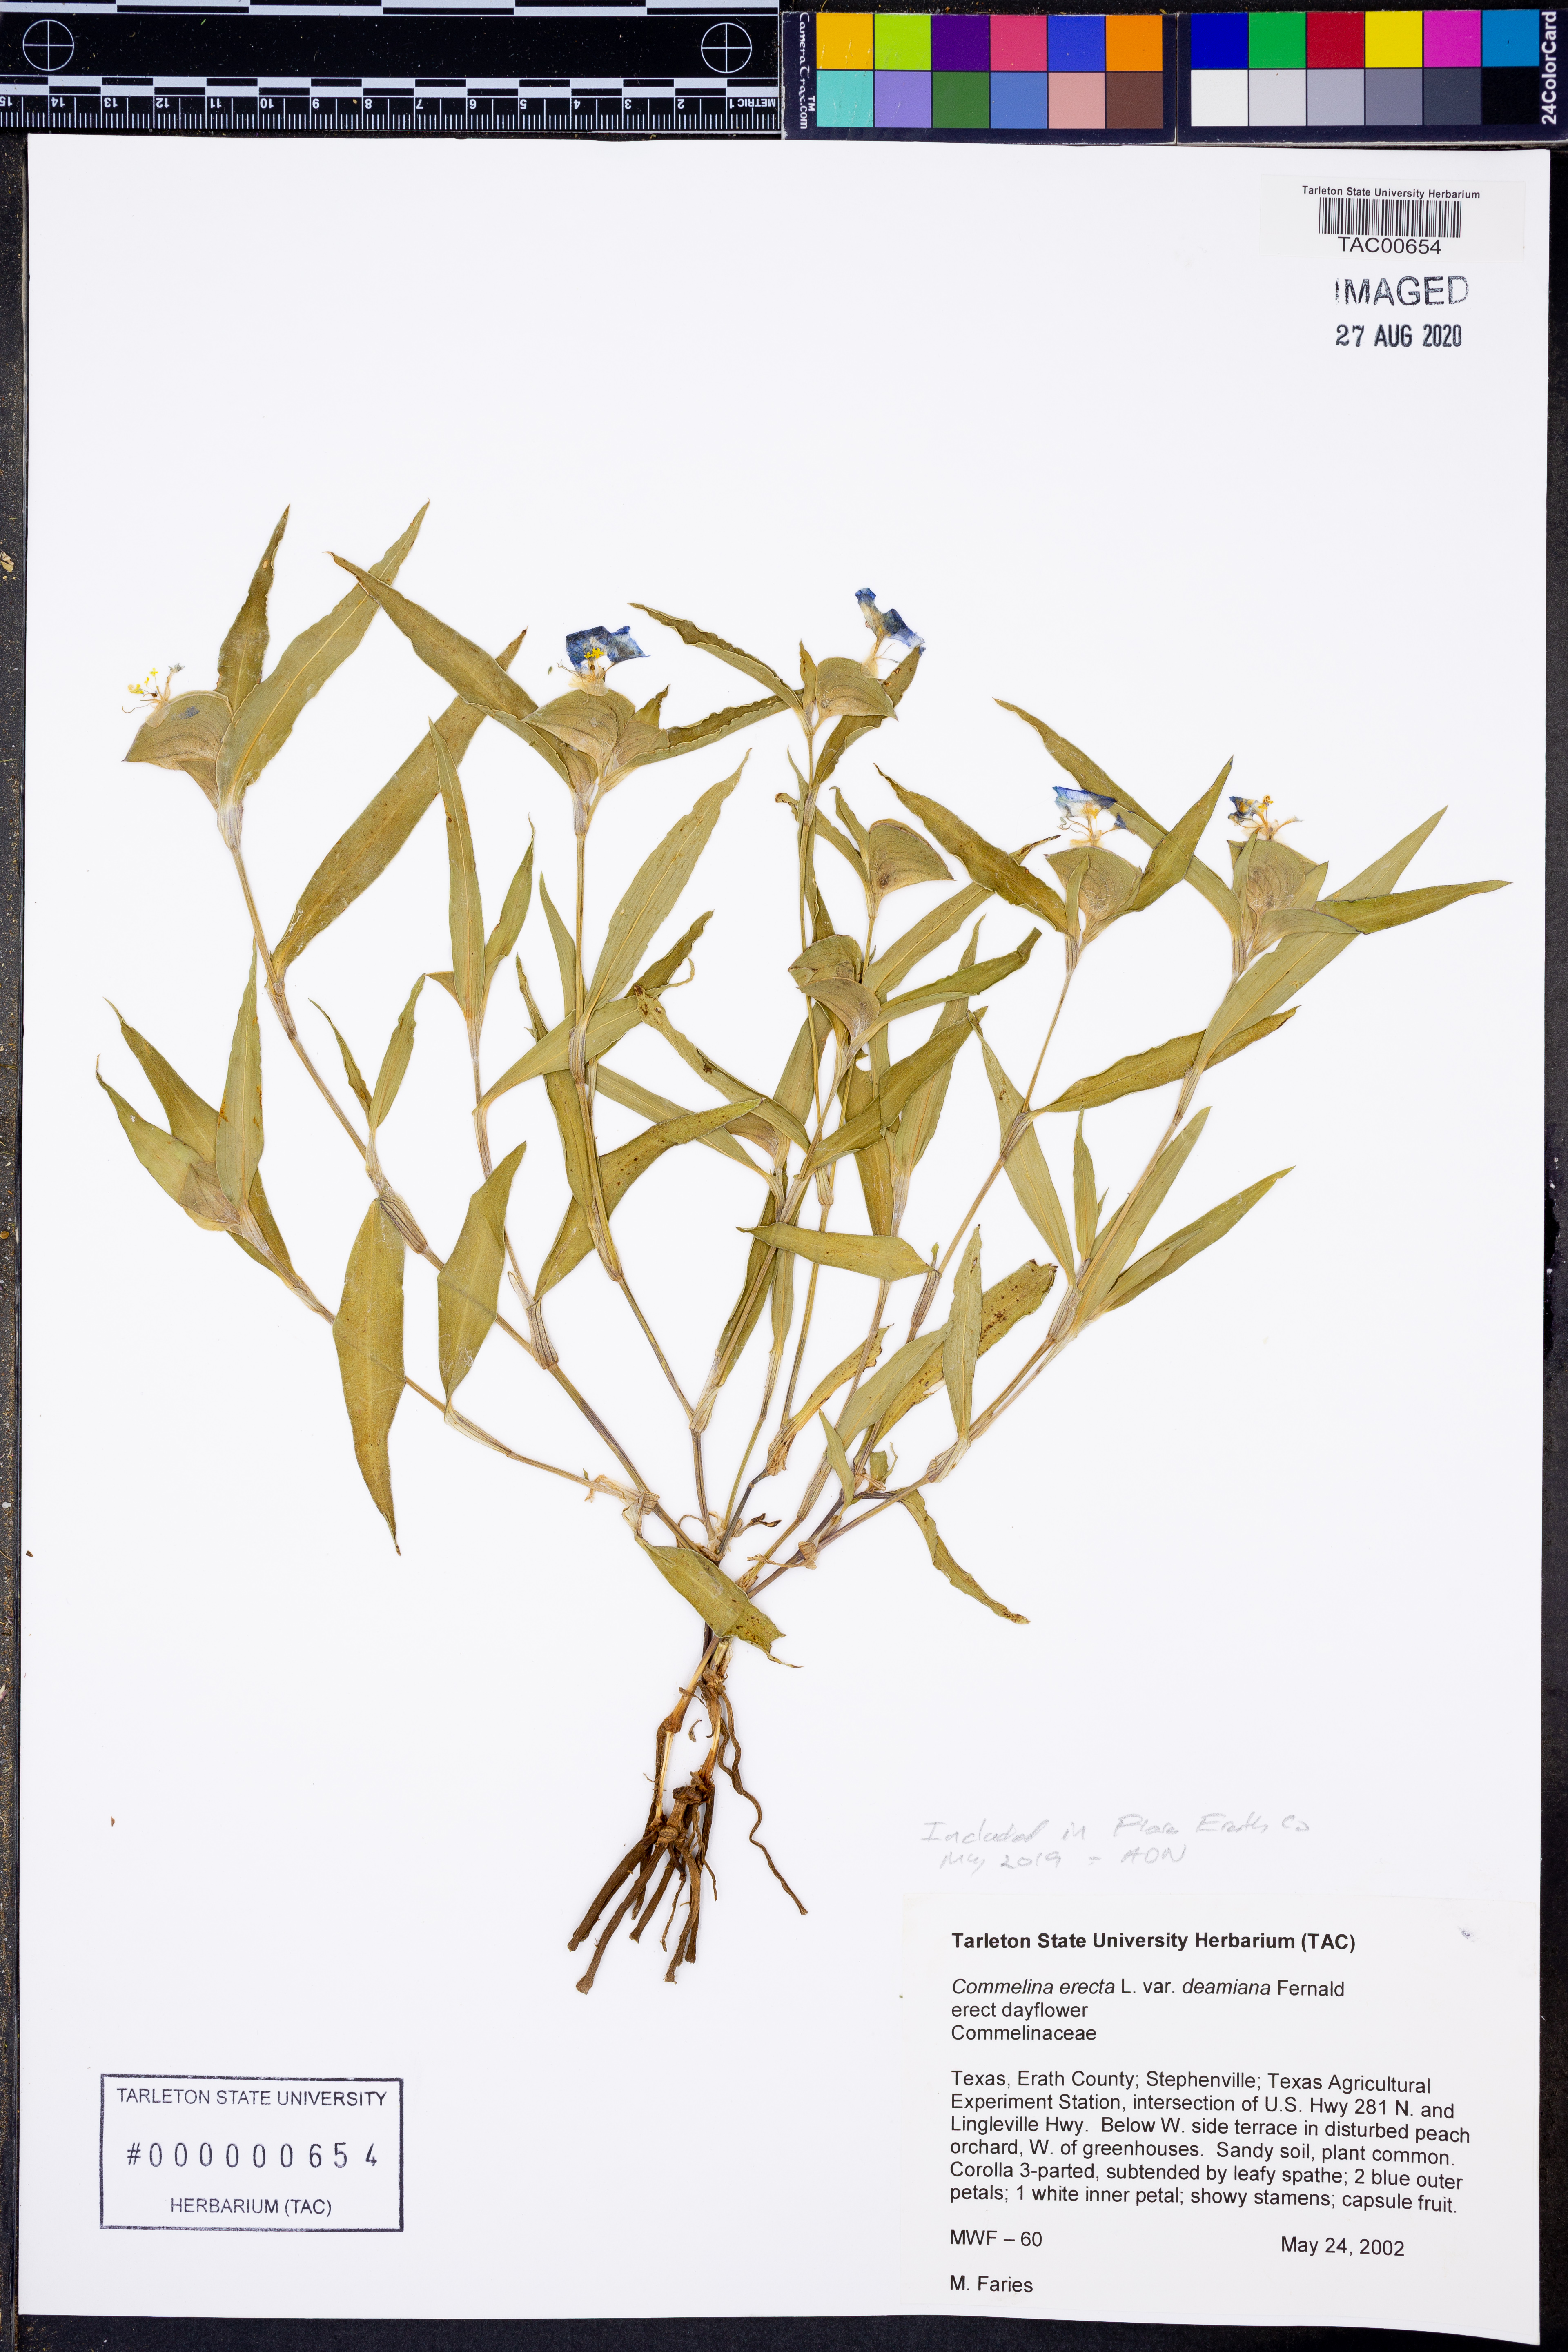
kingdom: Plantae
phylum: Tracheophyta
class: Liliopsida
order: Commelinales
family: Commelinaceae
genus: Commelina
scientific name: Commelina erecta
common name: Blousel blommetjie
